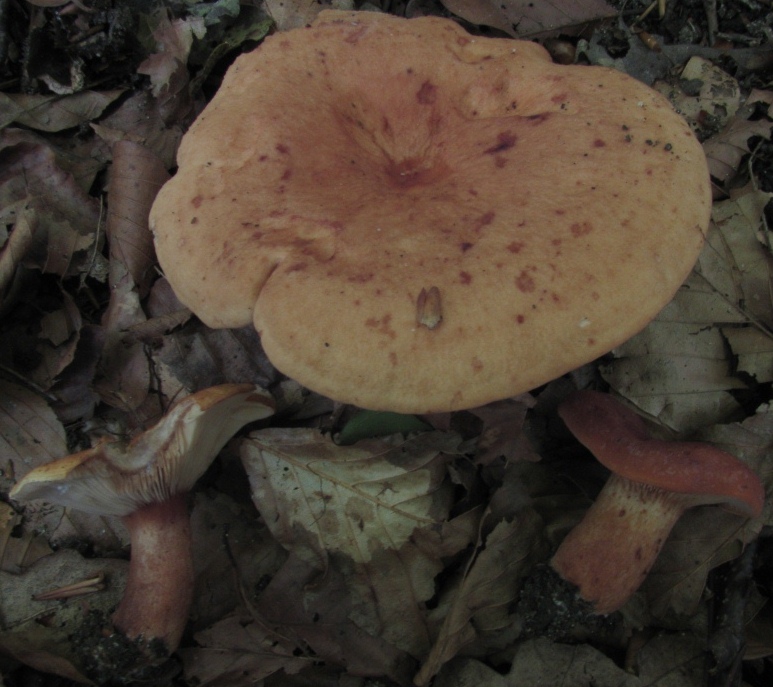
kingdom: Fungi
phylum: Basidiomycota
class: Agaricomycetes
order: Russulales
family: Russulaceae
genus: Lactarius
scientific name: Lactarius rubrocinctus
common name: halsbånd-mælkehat
